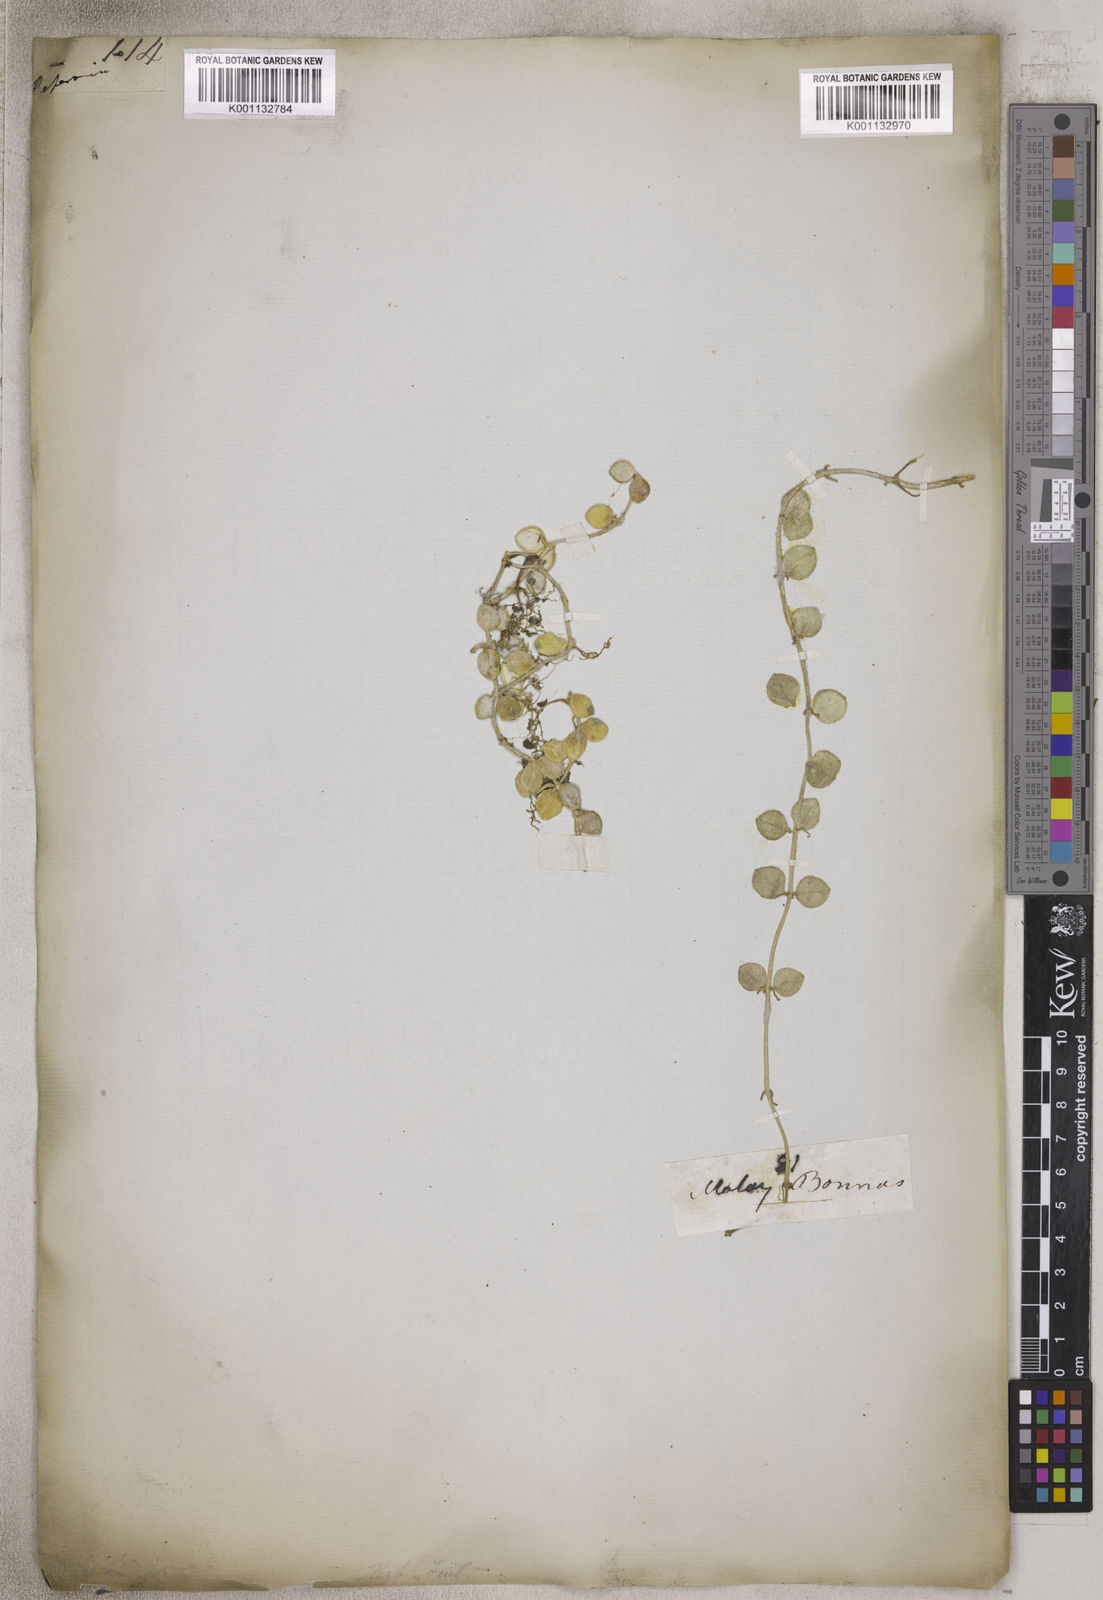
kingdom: Plantae
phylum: Tracheophyta
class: Magnoliopsida
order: Gentianales
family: Apocynaceae
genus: Dischidia
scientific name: Dischidia
